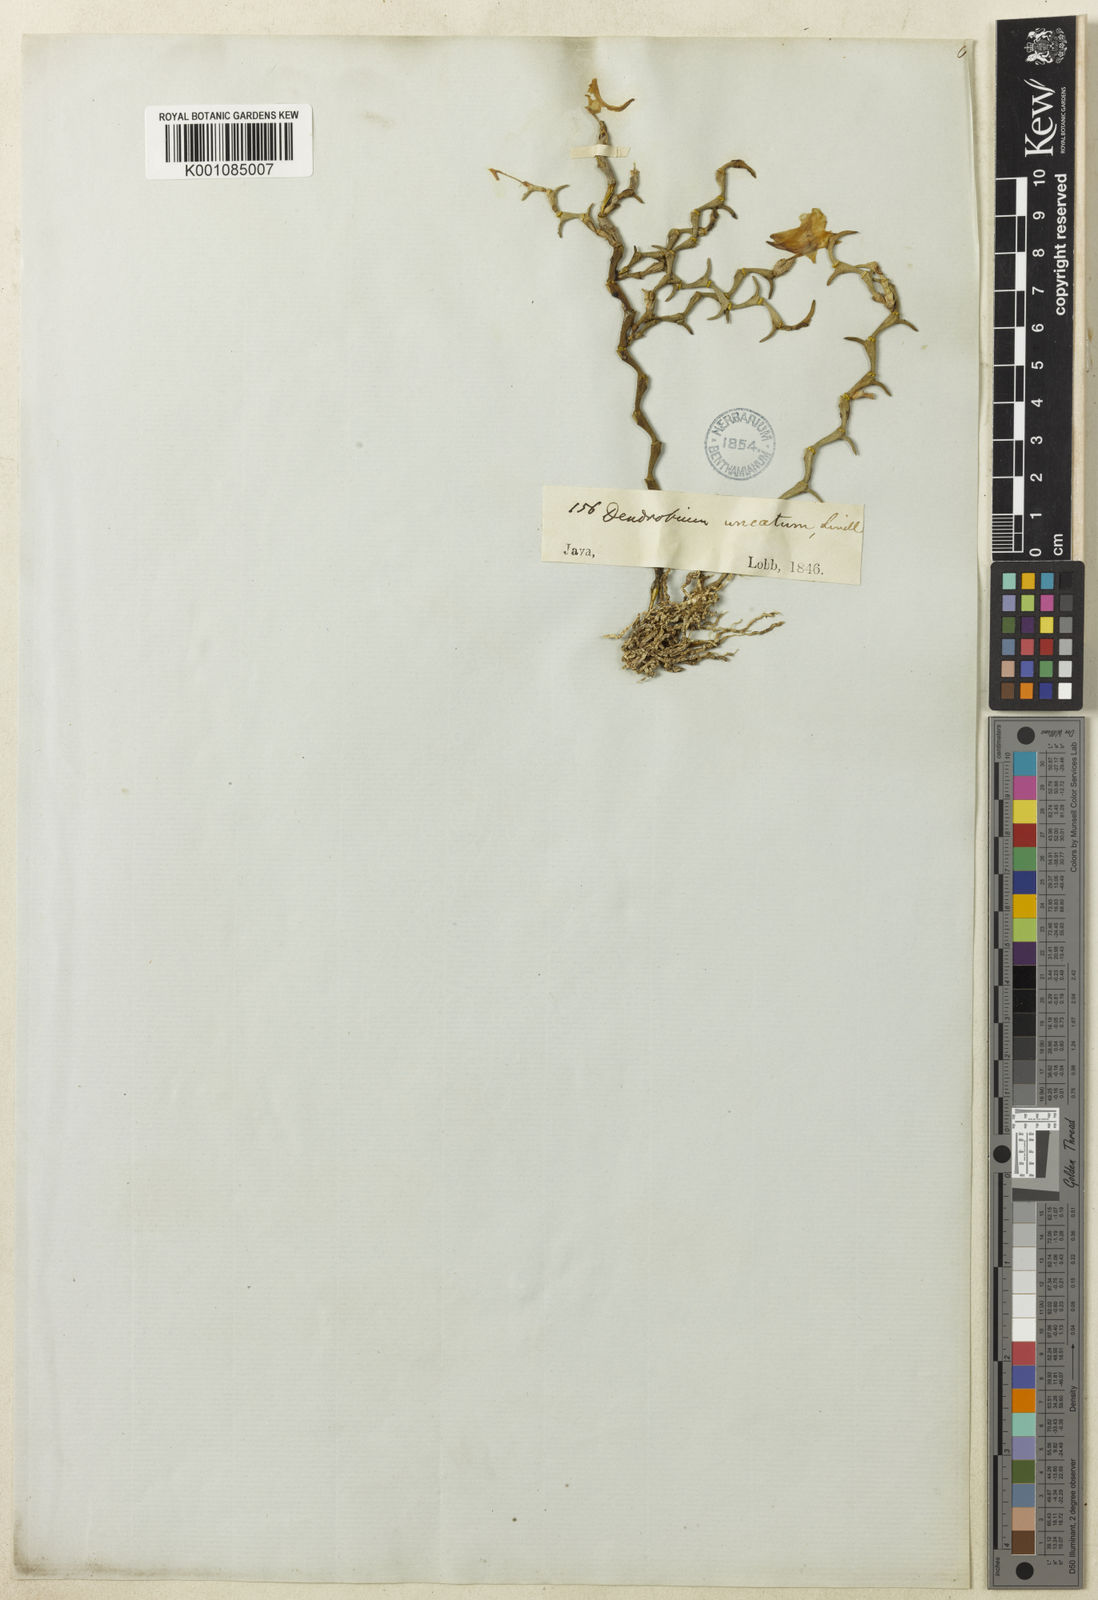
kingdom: Plantae
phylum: Tracheophyta
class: Liliopsida
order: Asparagales
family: Orchidaceae
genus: Dendrobium
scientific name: Dendrobium uncatum
